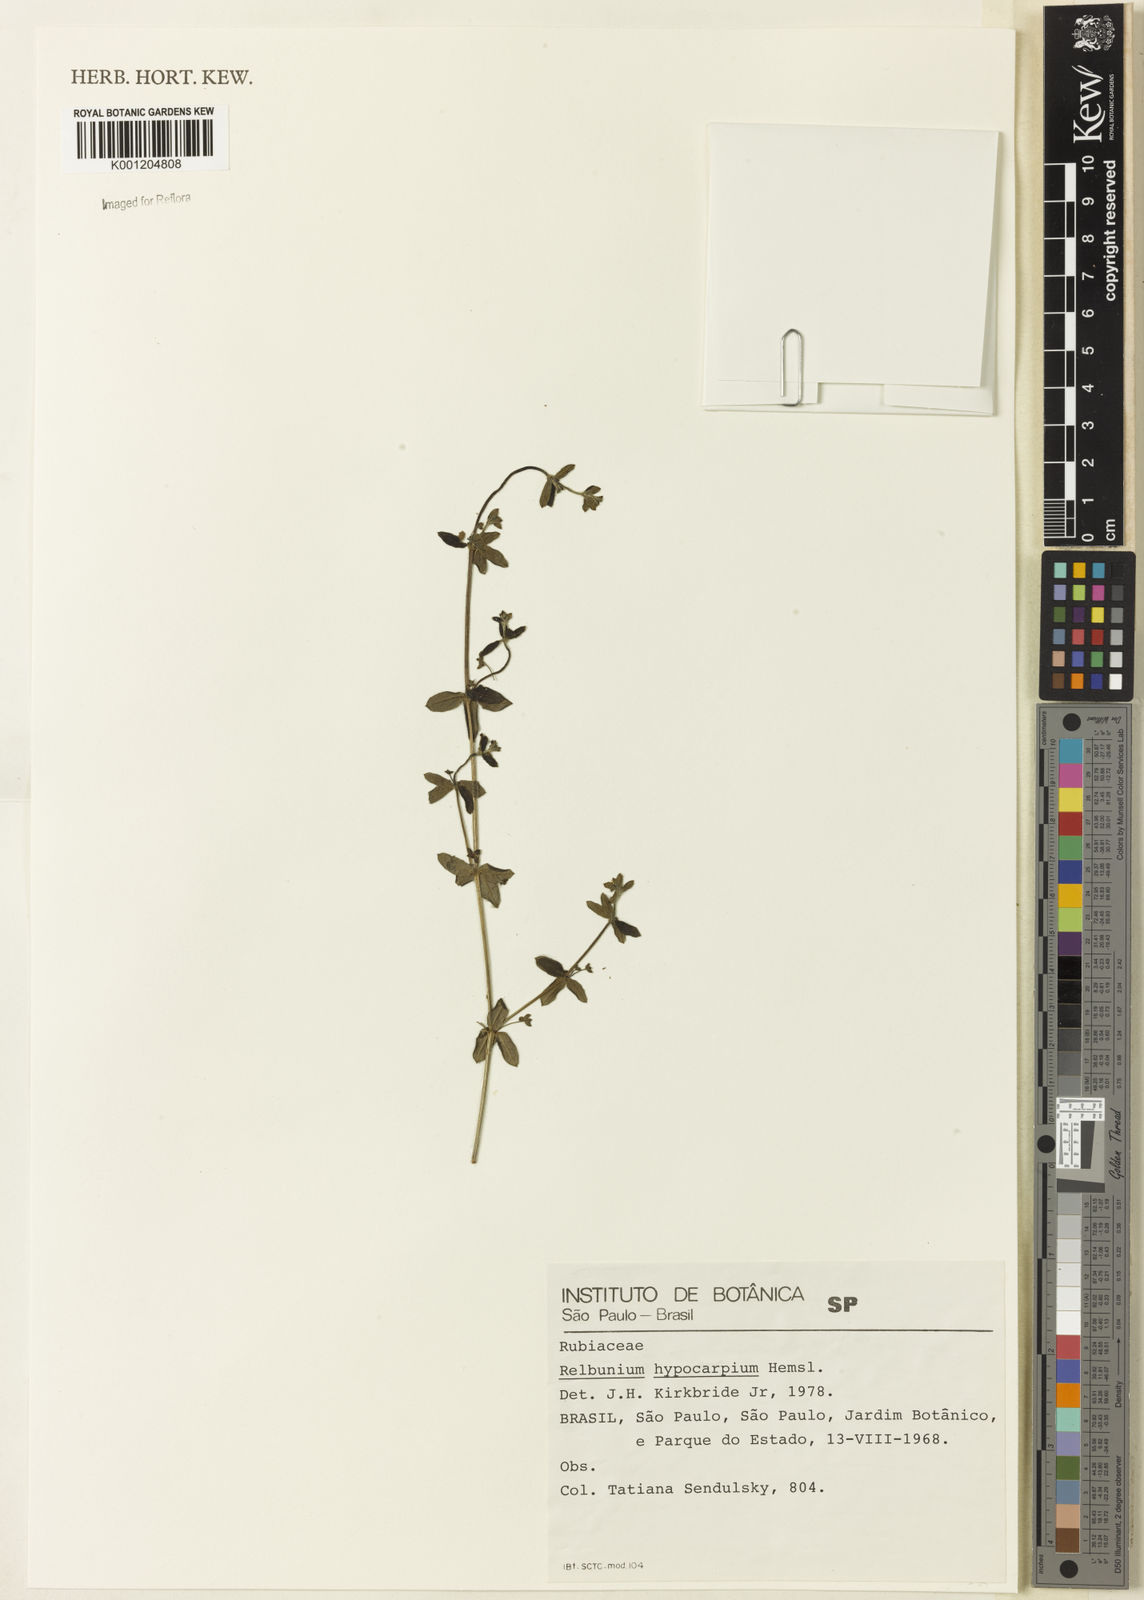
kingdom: Plantae
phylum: Tracheophyta
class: Magnoliopsida
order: Gentianales
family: Rubiaceae
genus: Galium
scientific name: Galium hypocarpium
